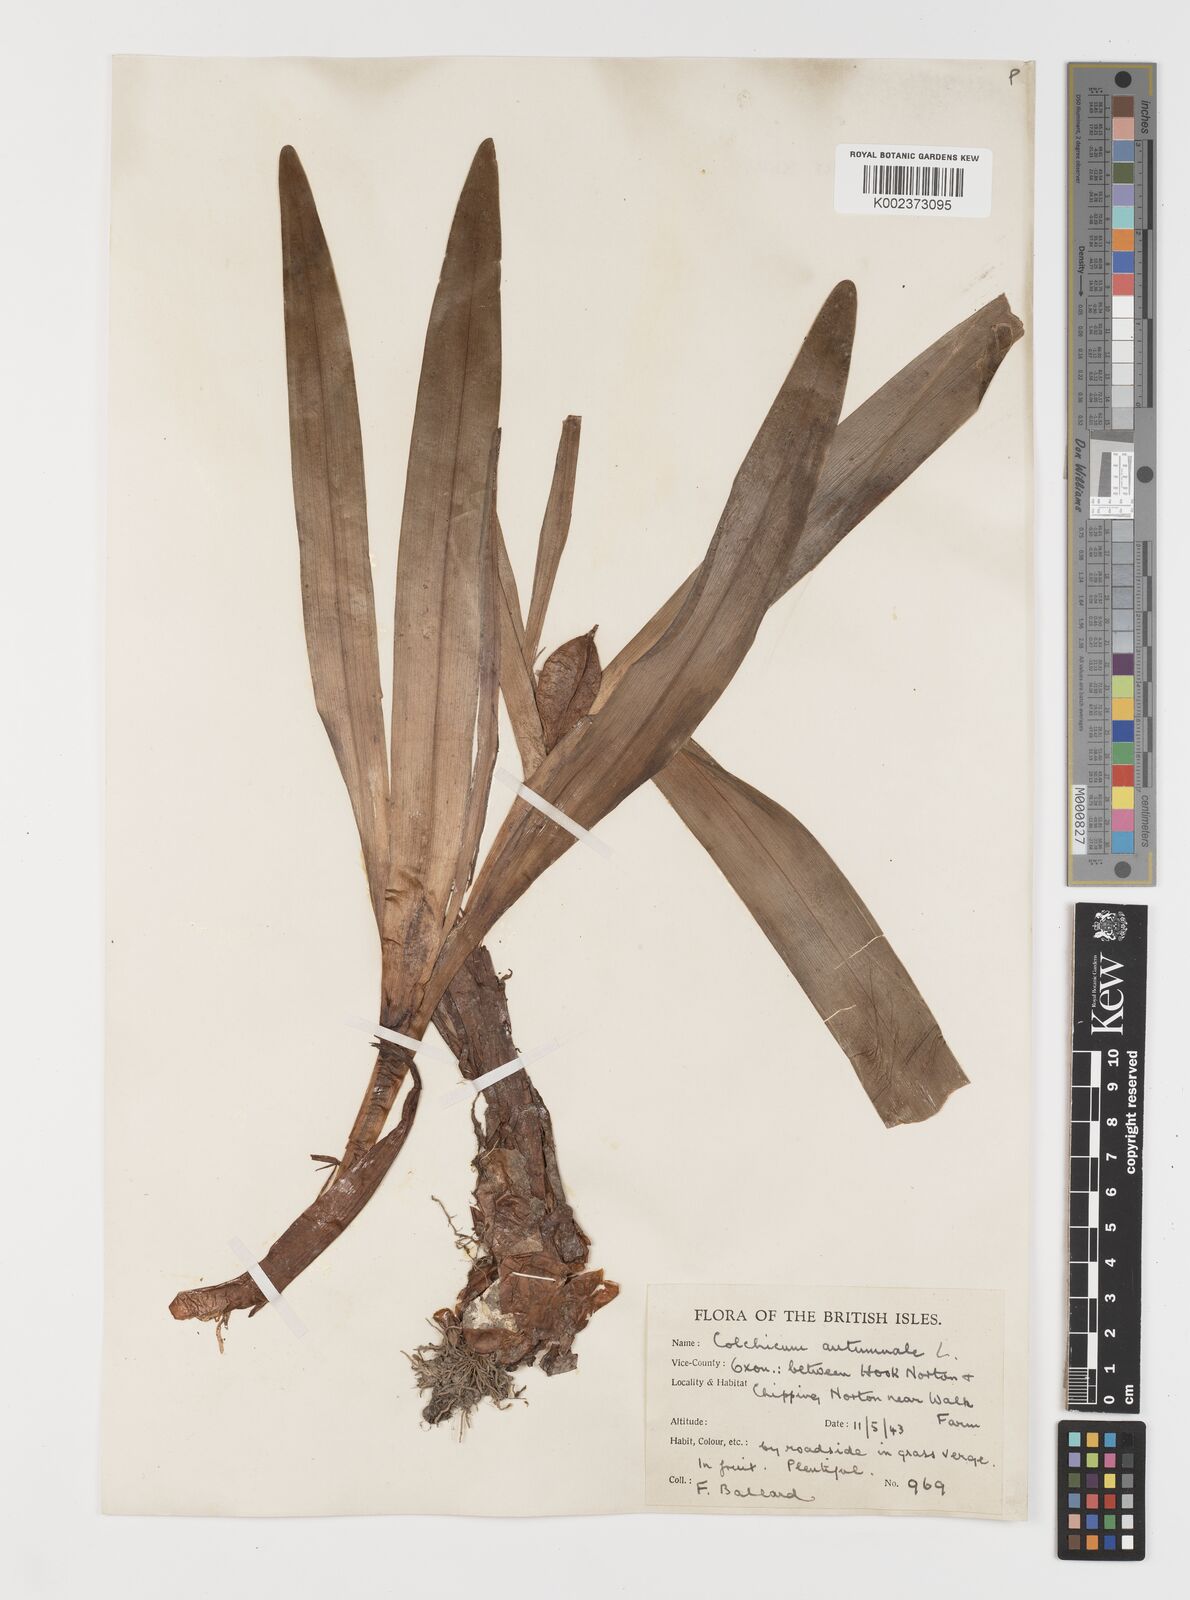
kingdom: Plantae
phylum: Tracheophyta
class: Liliopsida
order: Liliales
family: Colchicaceae
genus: Colchicum
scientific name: Colchicum autumnale
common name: Autumn crocus
